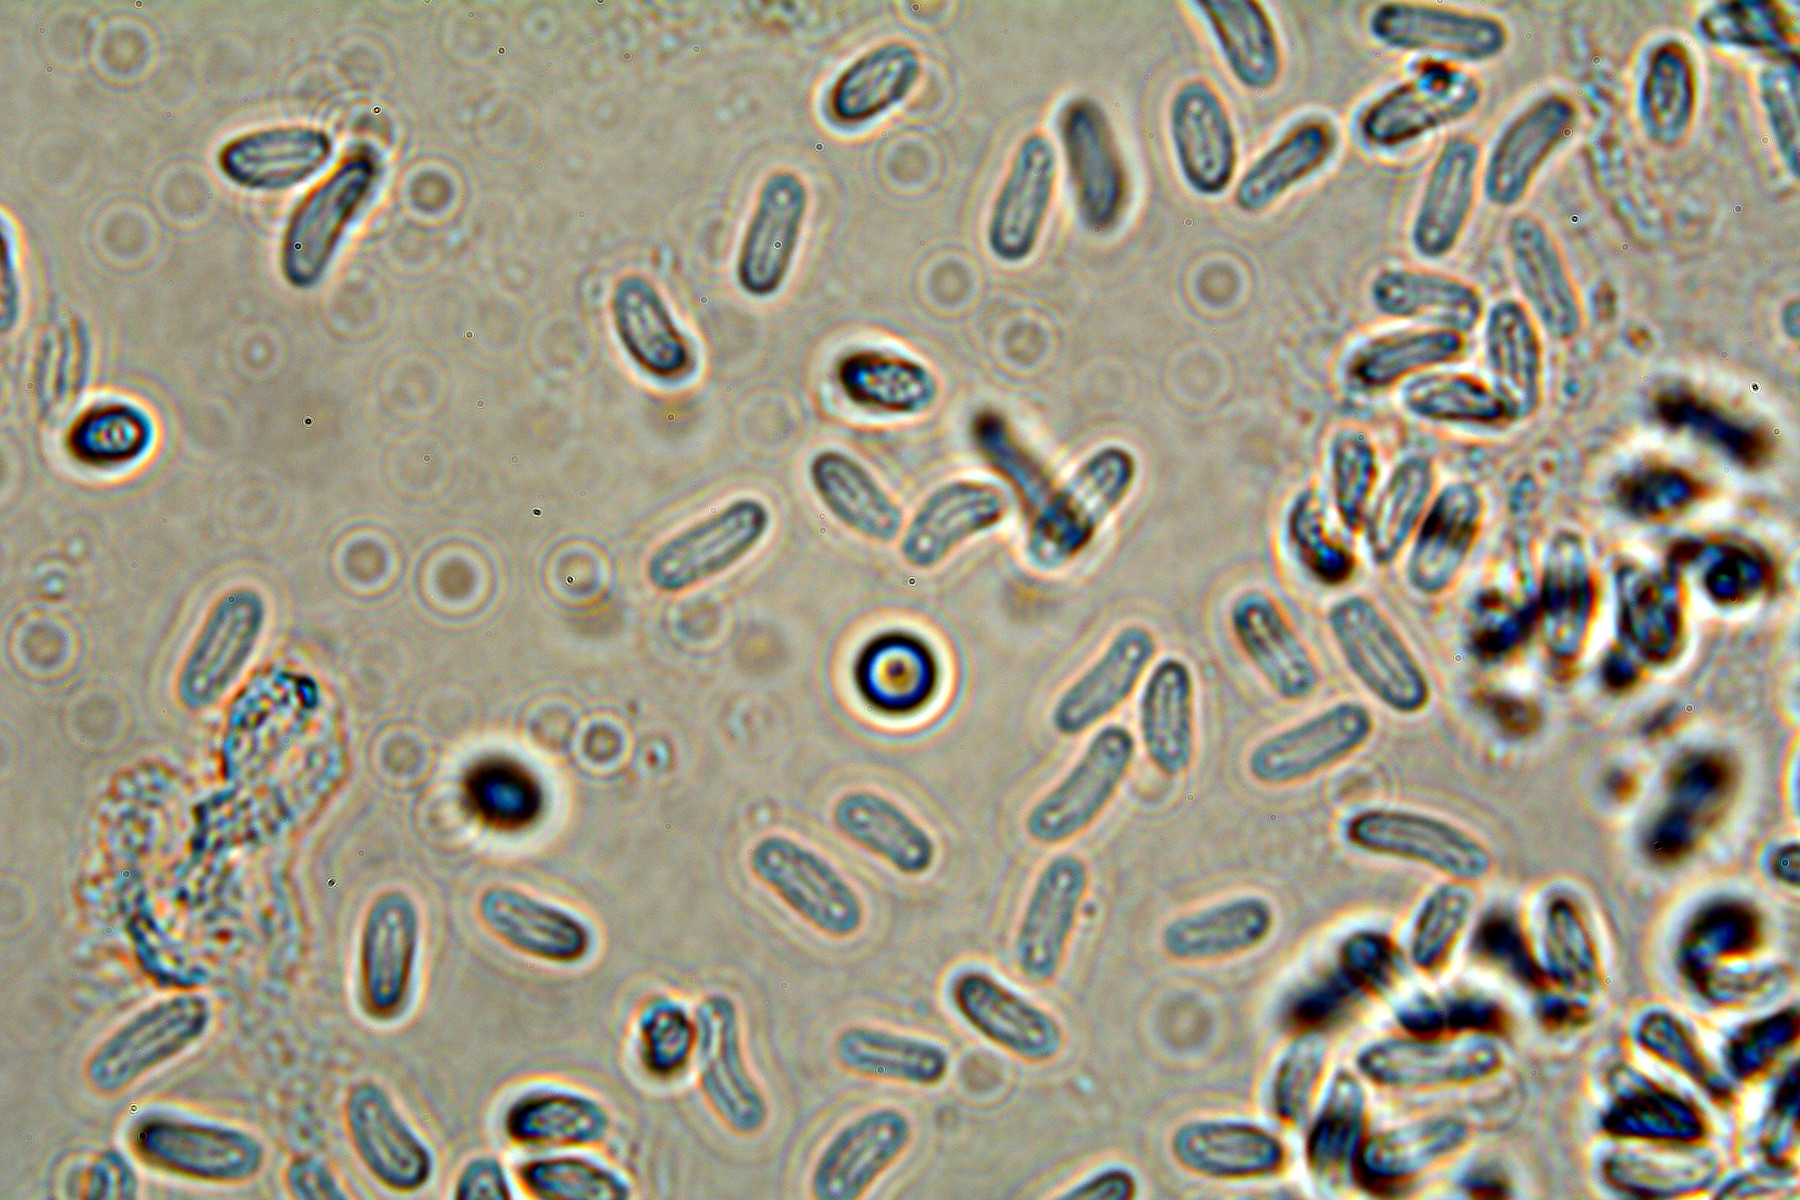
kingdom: Fungi
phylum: Ascomycota
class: Dothideomycetes
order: Pleosporales
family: Diademaceae
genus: Comoclathris
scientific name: Comoclathris typhicola
